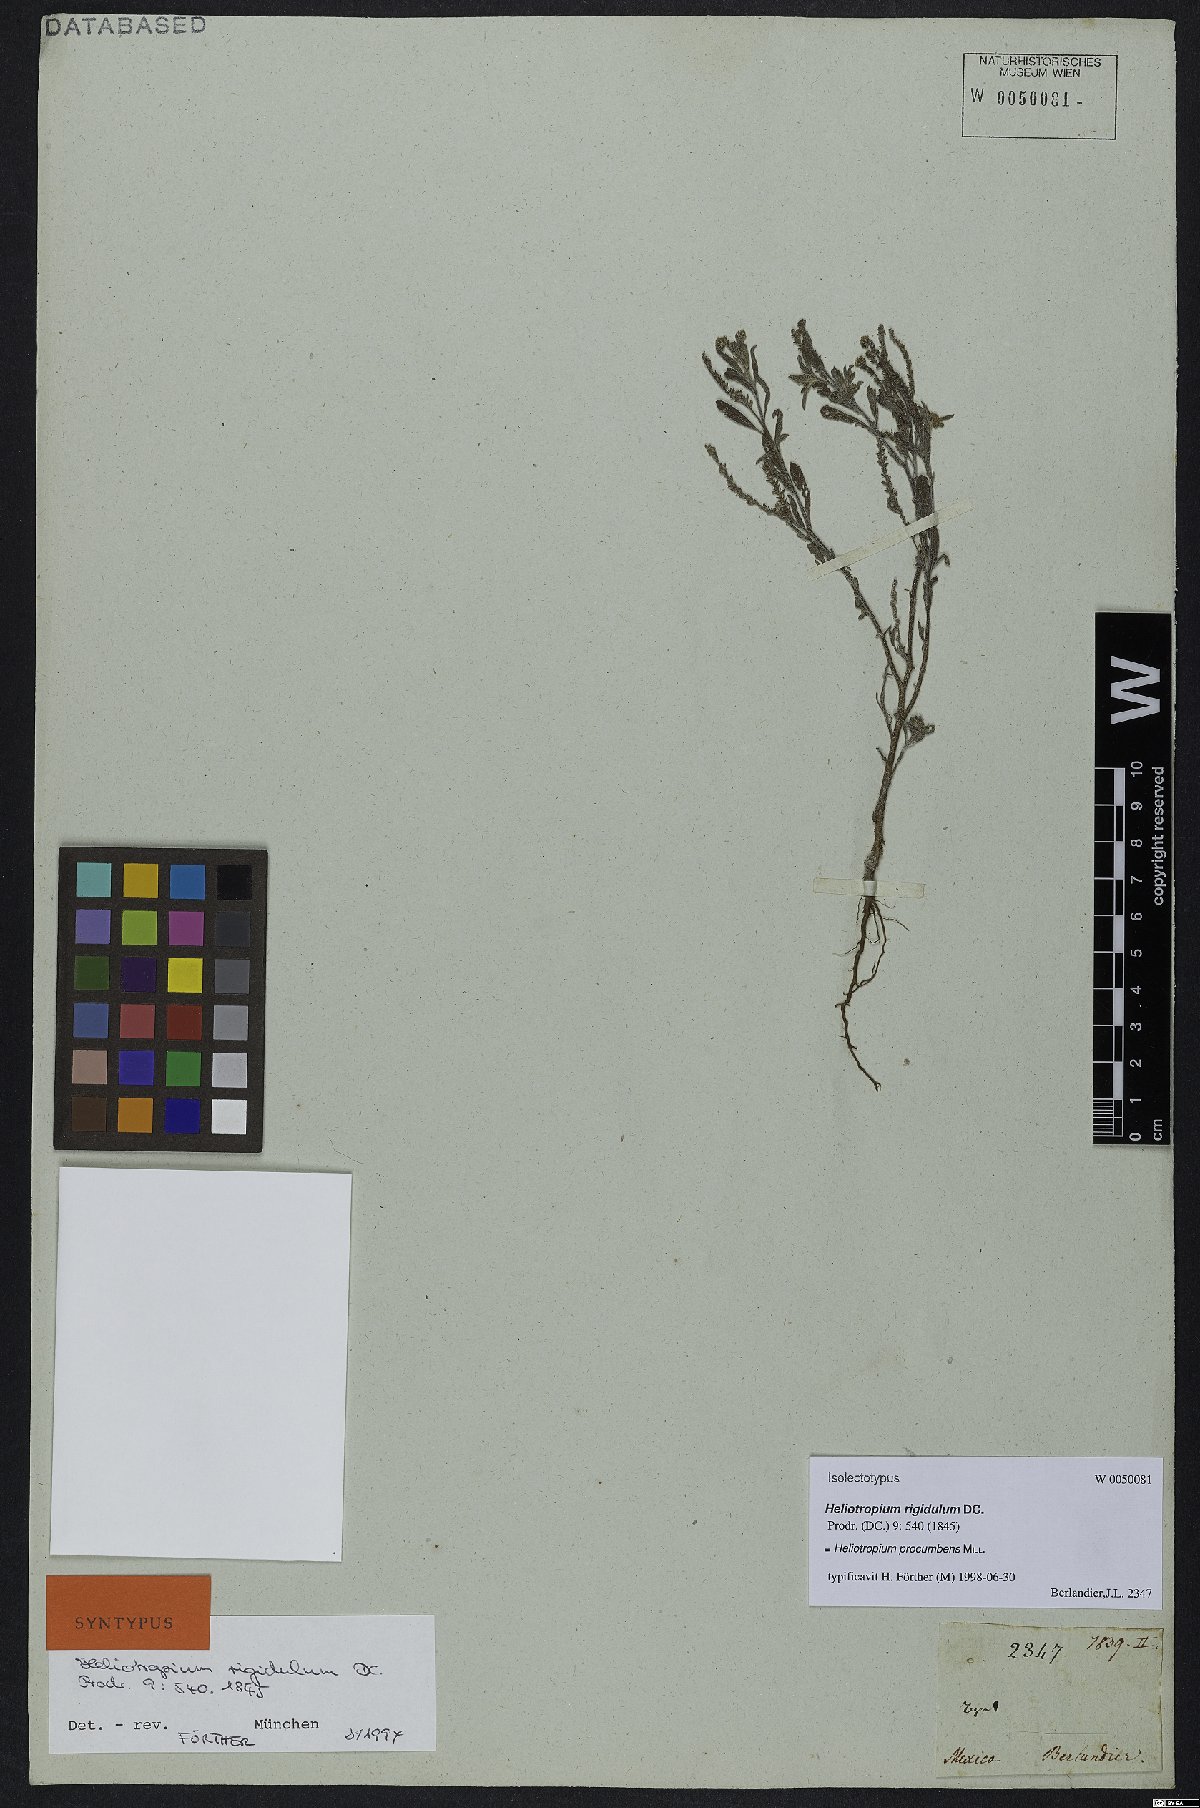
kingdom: Plantae
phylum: Tracheophyta
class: Magnoliopsida
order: Boraginales
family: Heliotropiaceae
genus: Euploca
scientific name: Euploca procumbens
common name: Fourspike heliotrope
